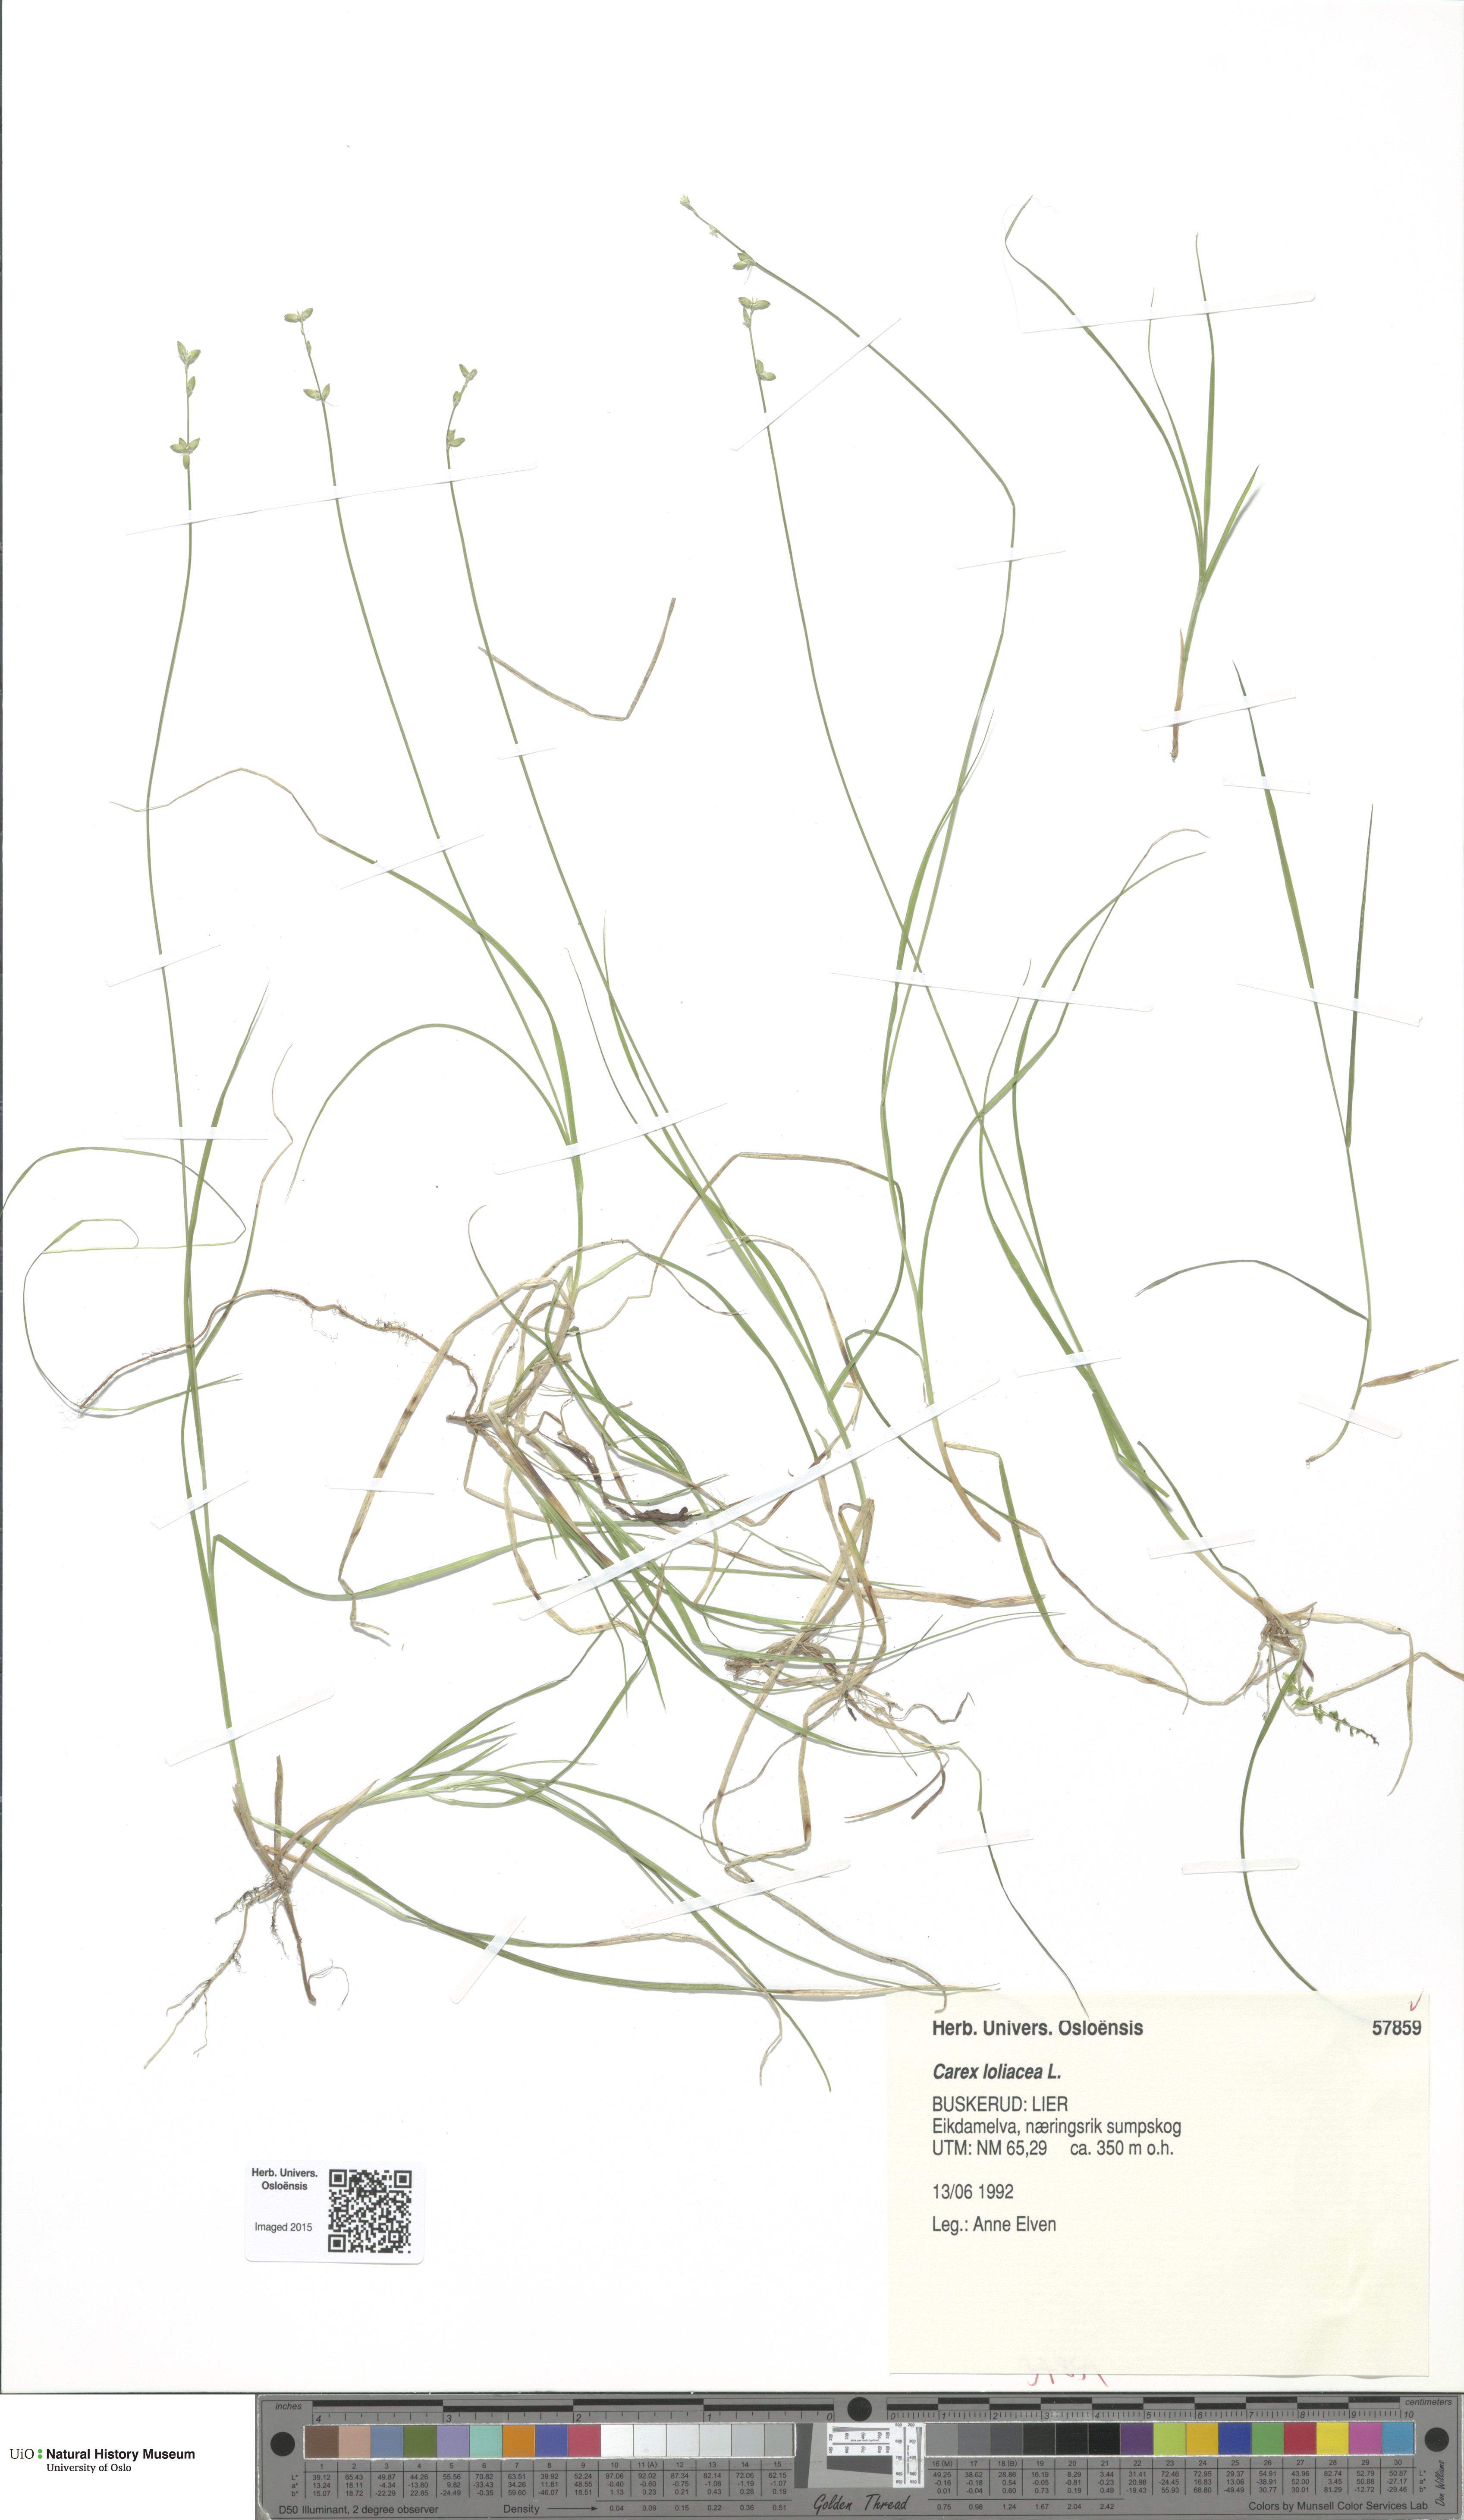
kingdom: Plantae
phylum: Tracheophyta
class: Liliopsida
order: Poales
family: Cyperaceae
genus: Carex
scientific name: Carex loliacea
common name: Ryegrass sedge
